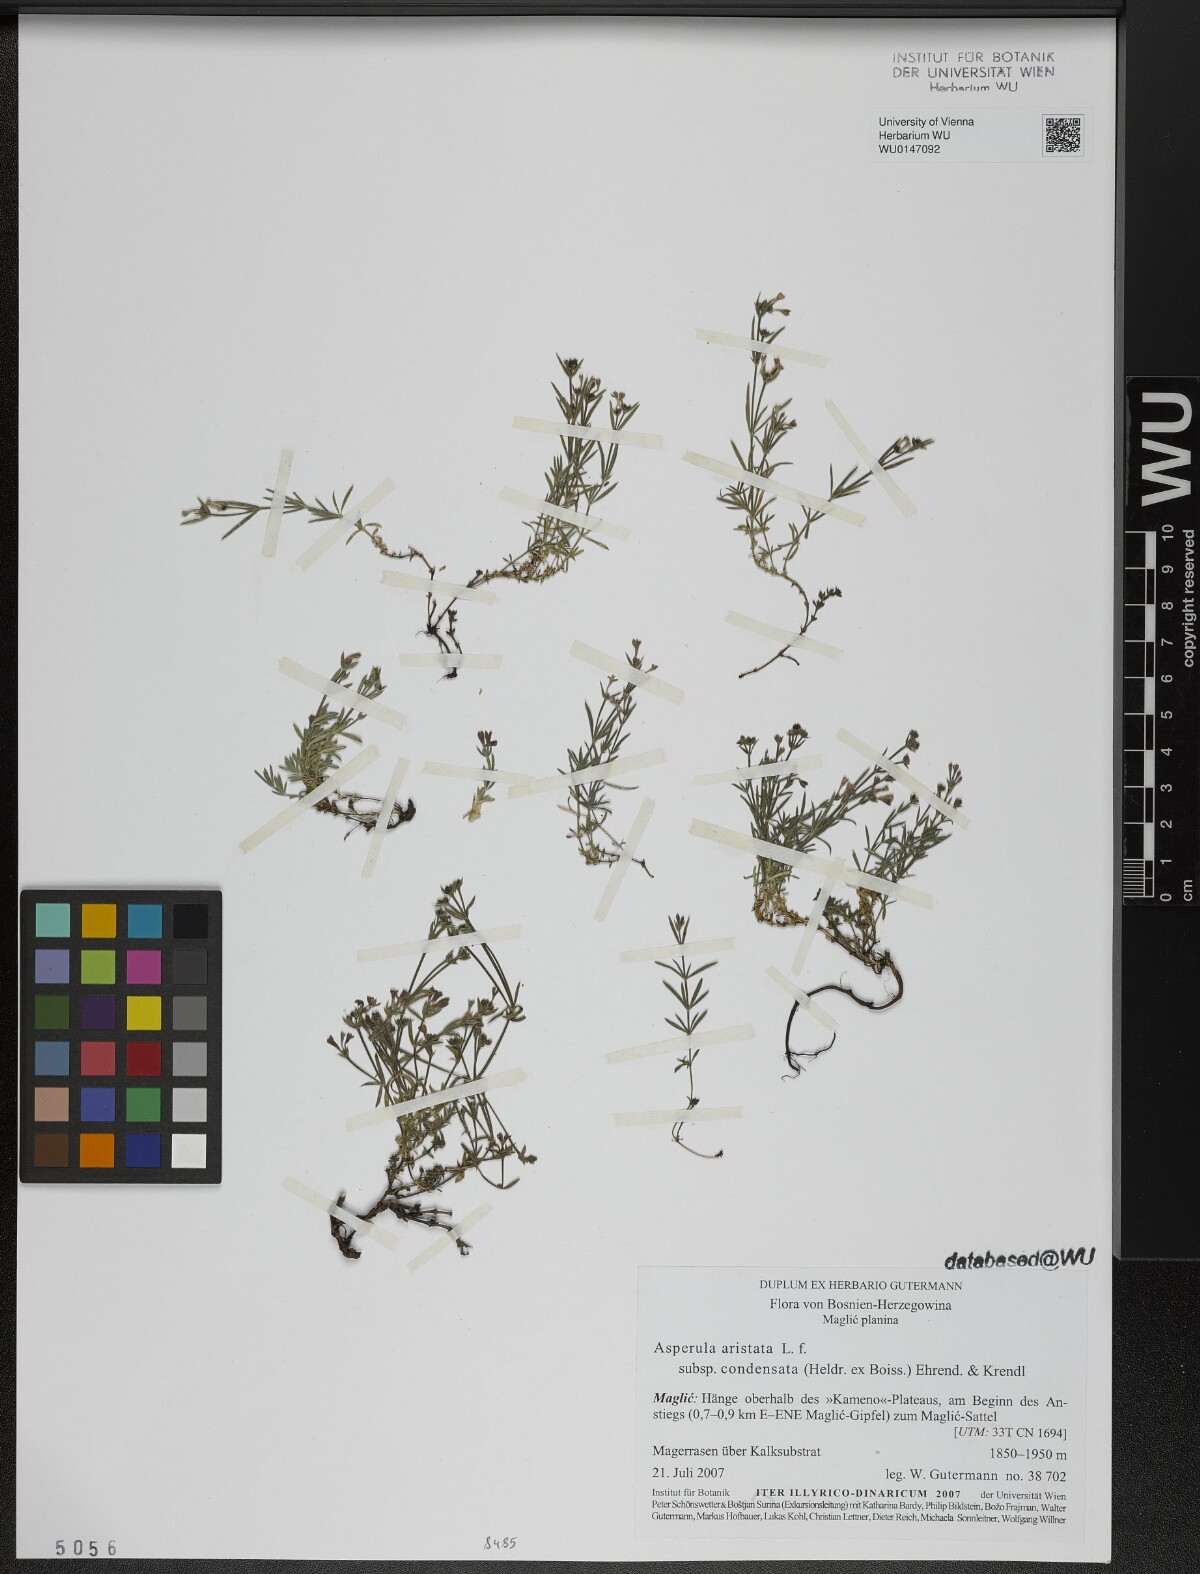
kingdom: Plantae
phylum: Tracheophyta
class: Magnoliopsida
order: Gentianales
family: Rubiaceae
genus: Cynanchica
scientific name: Cynanchica aristata
